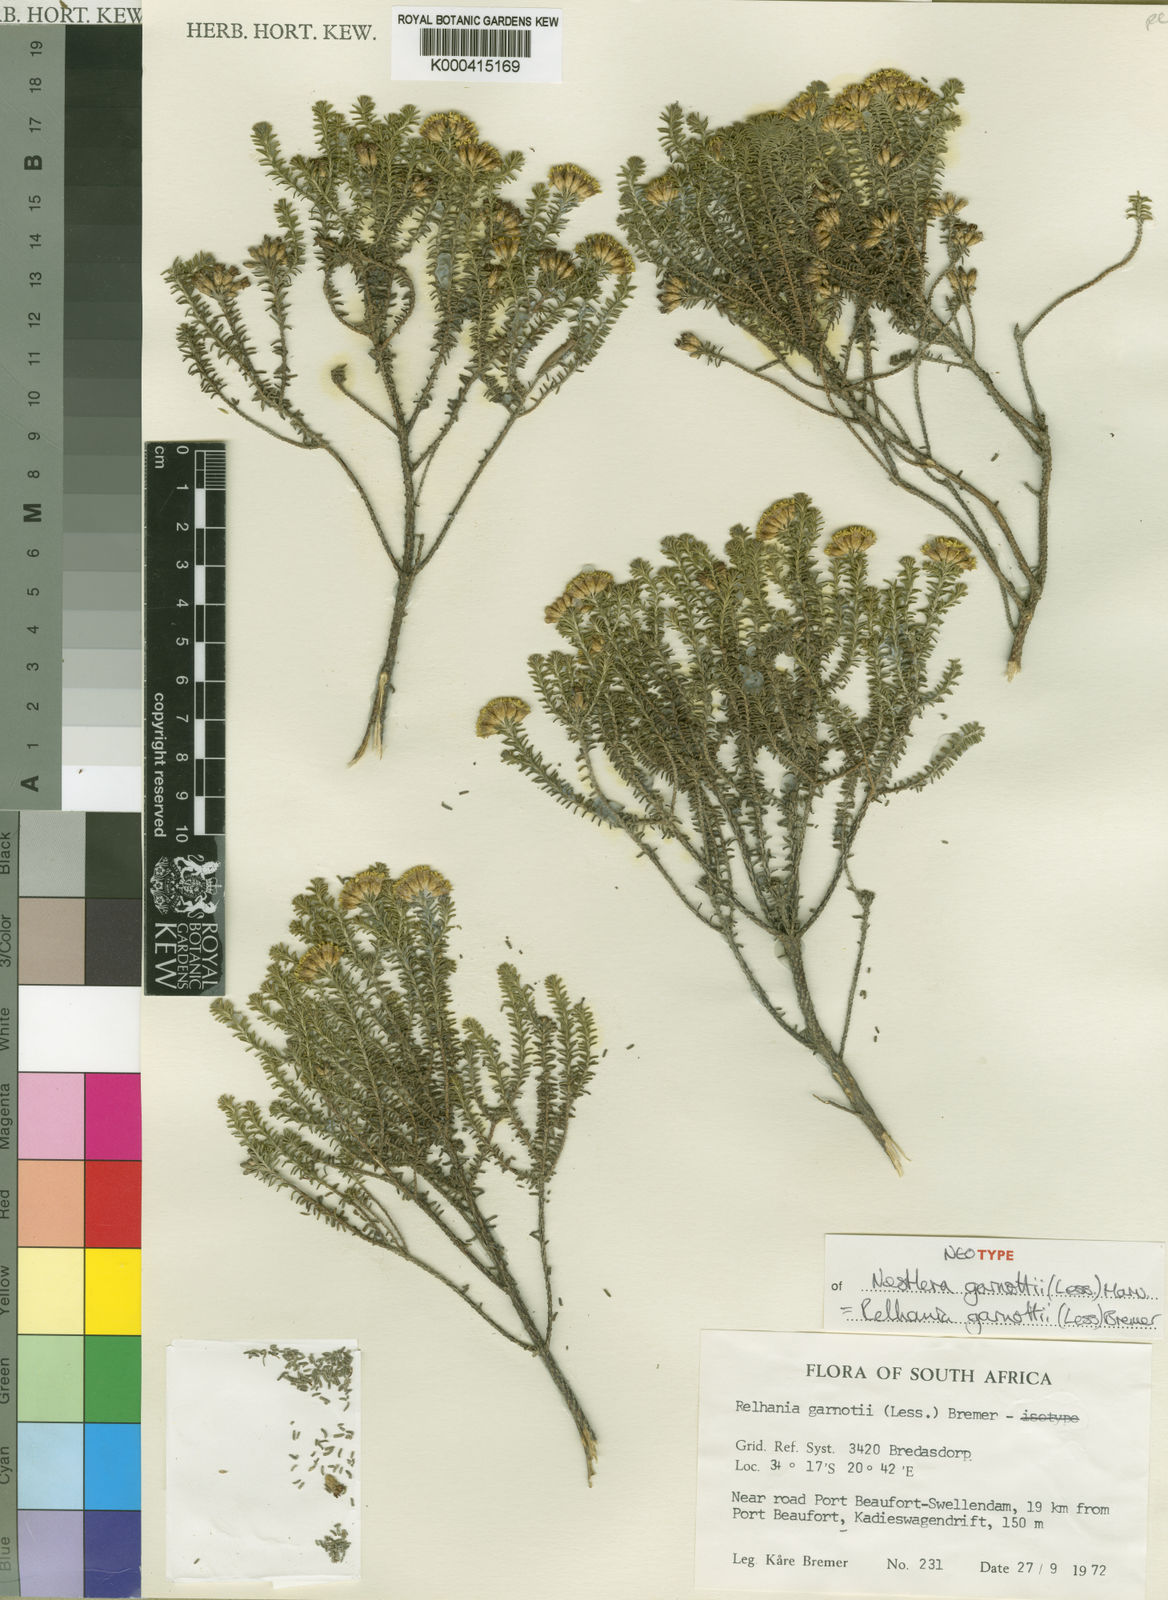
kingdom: Plantae
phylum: Tracheophyta
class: Magnoliopsida
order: Asterales
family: Asteraceae
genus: Oedera
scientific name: Oedera garnotii
